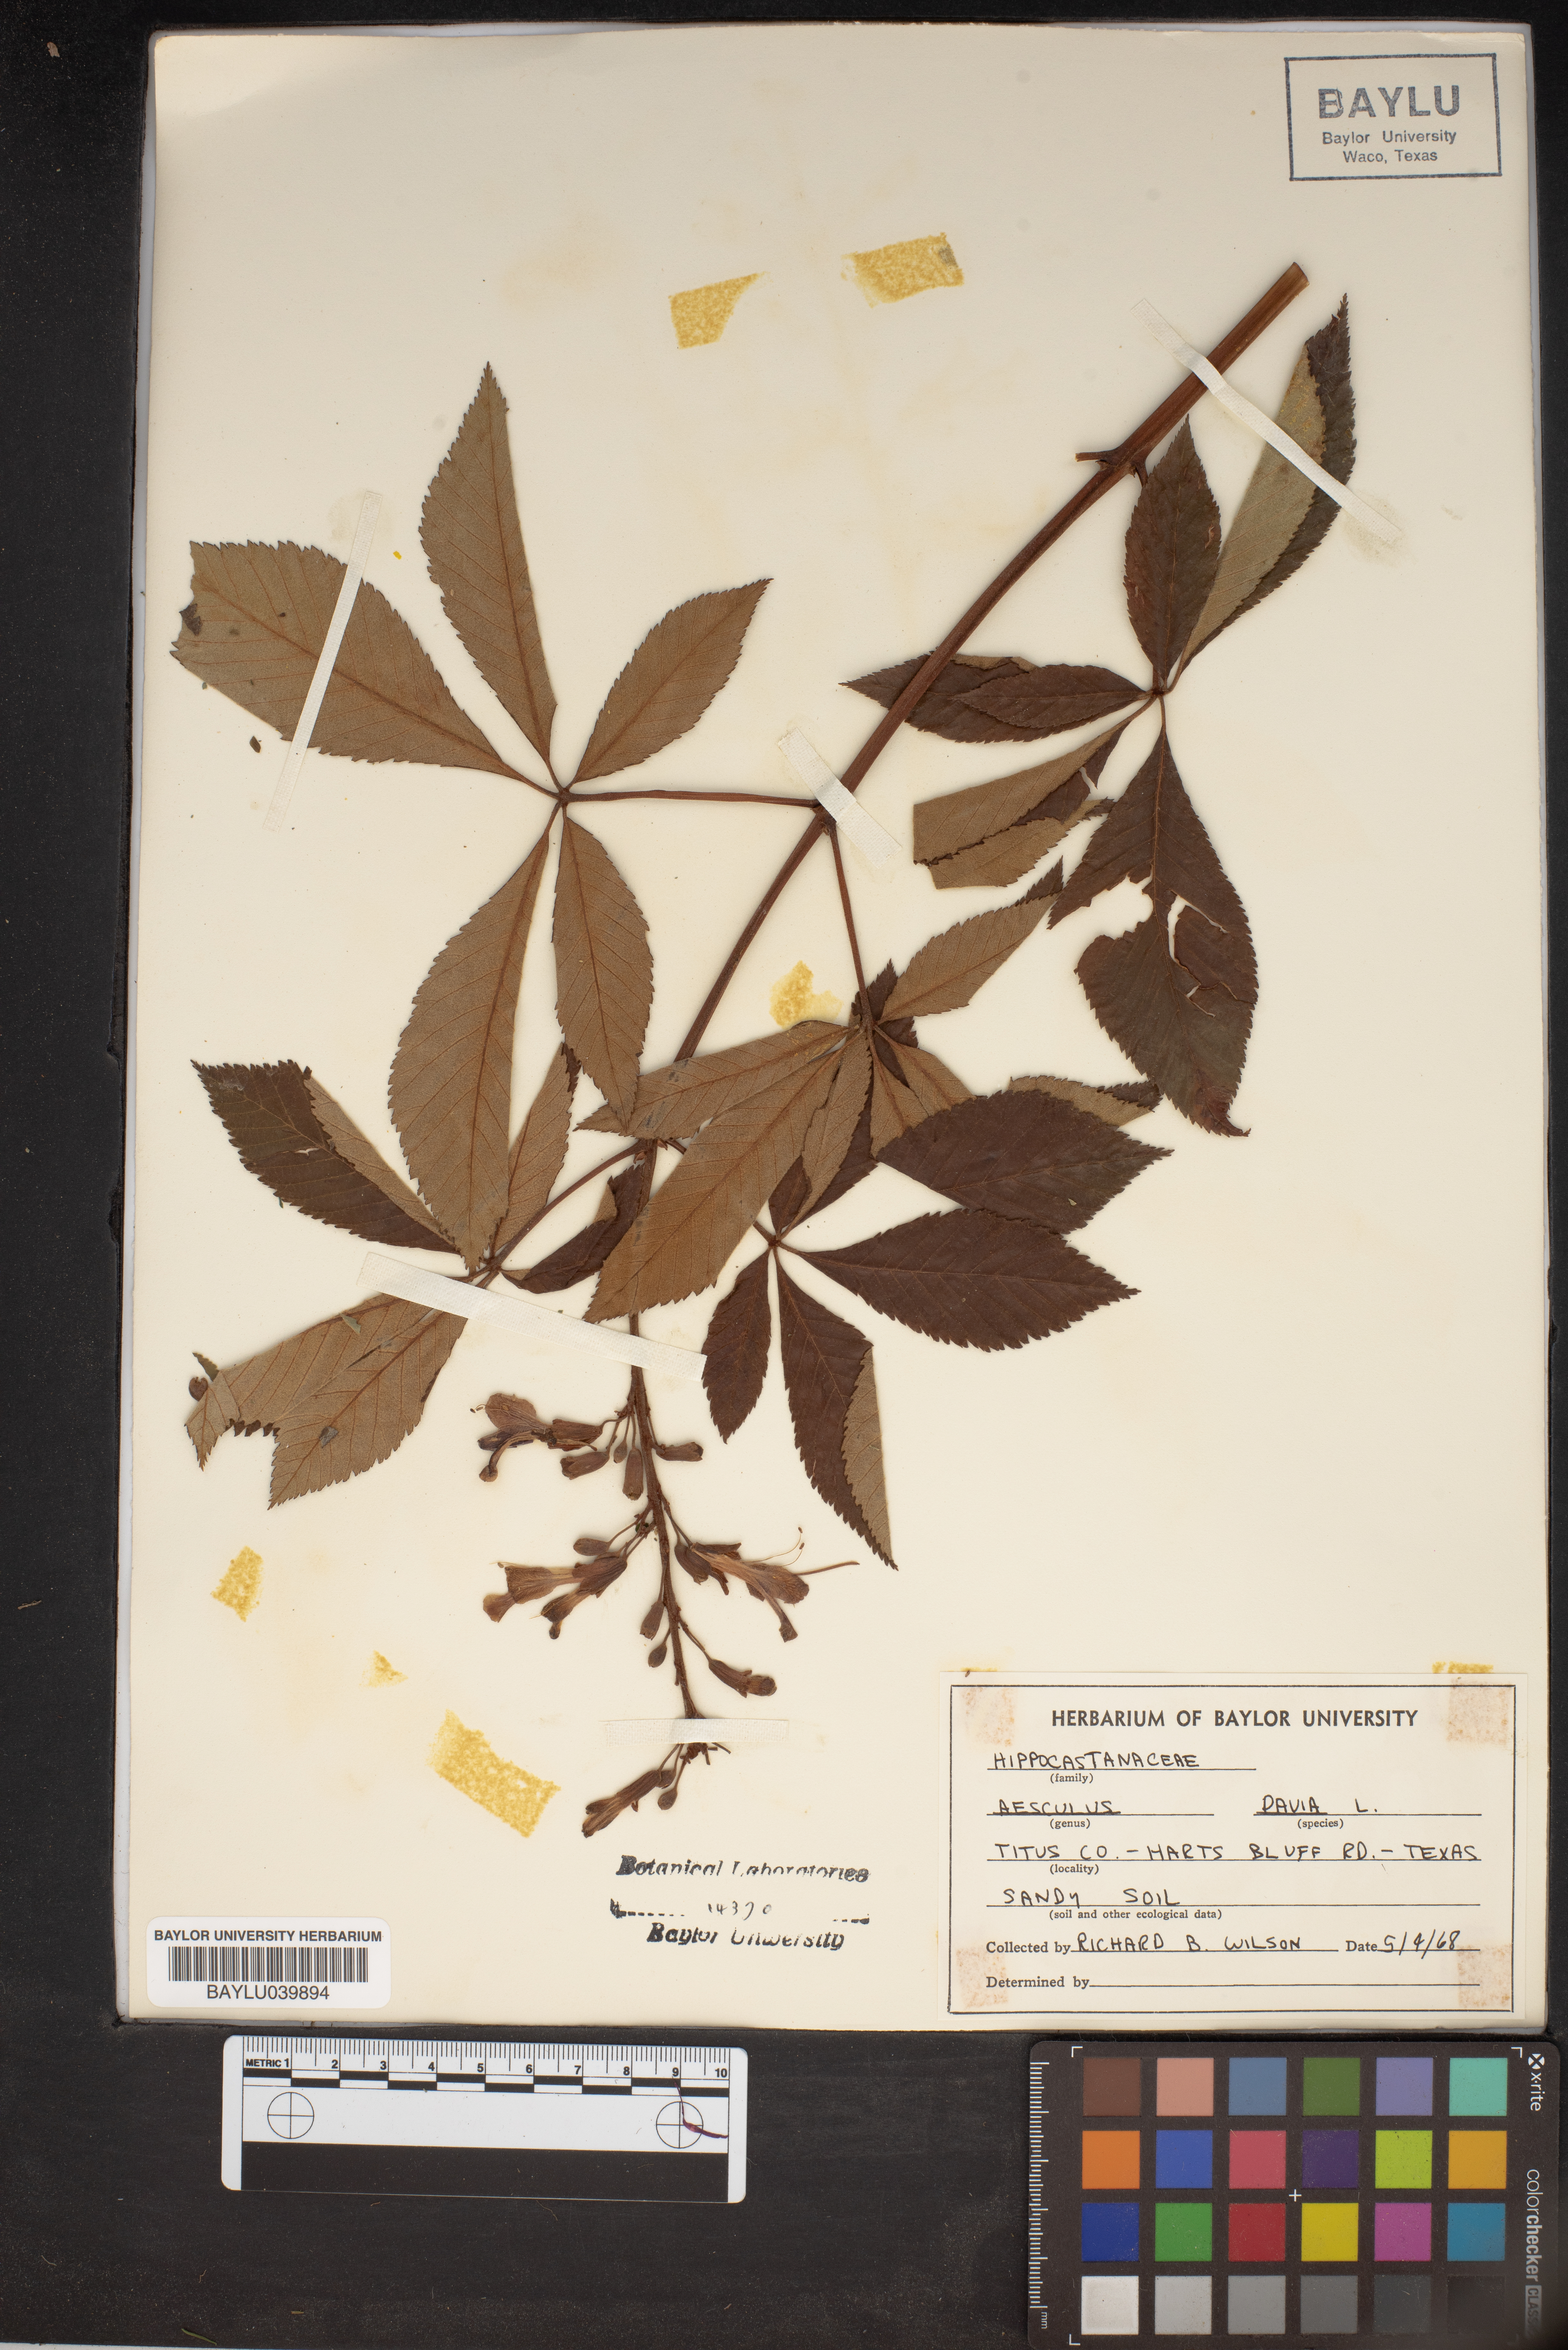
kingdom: Plantae
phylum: Tracheophyta
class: Magnoliopsida
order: Sapindales
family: Sapindaceae
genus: Aesculus
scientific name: Aesculus pavia
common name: Red buckeye
